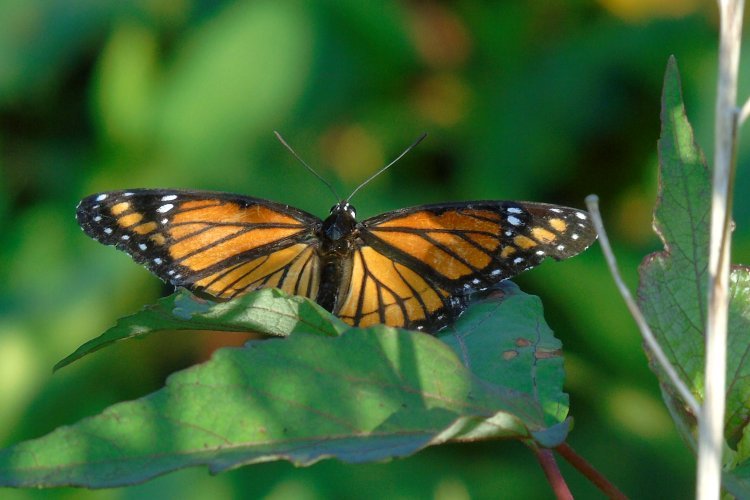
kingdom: Animalia
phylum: Arthropoda
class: Insecta
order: Lepidoptera
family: Nymphalidae
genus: Limenitis
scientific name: Limenitis archippus
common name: Viceroy
